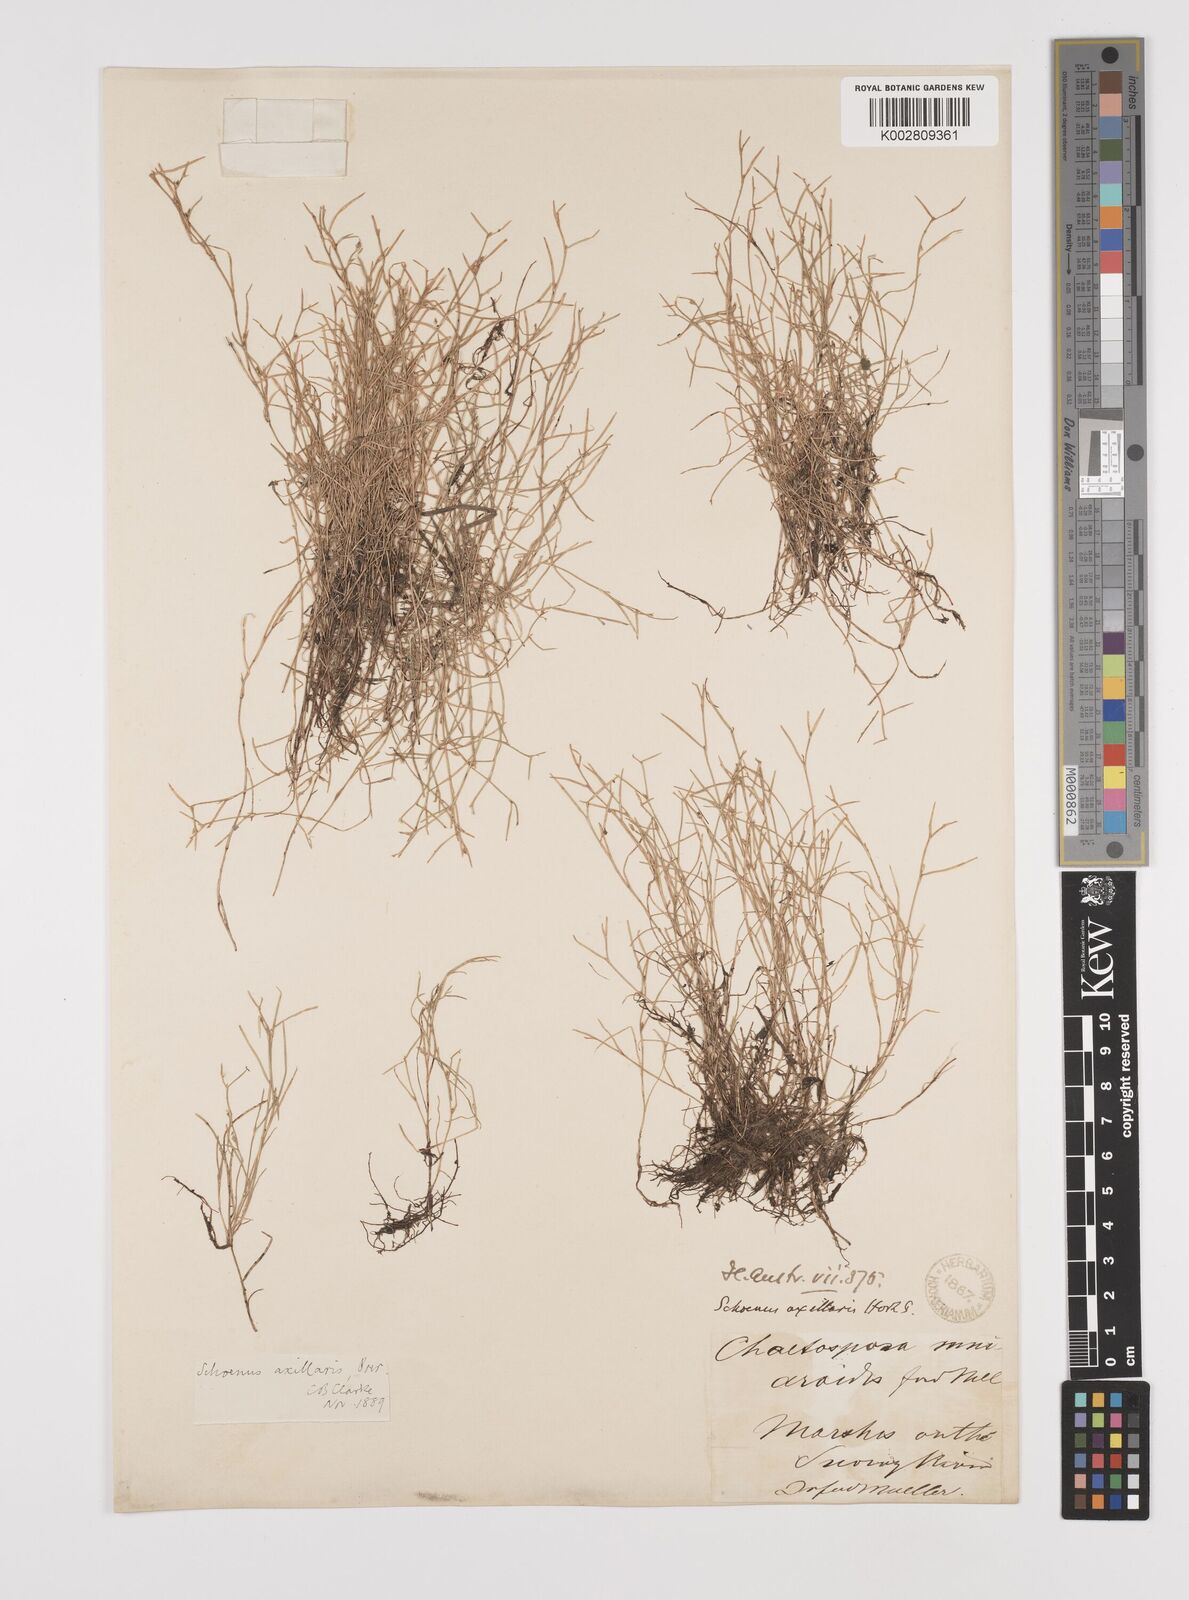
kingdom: Plantae
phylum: Tracheophyta
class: Liliopsida
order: Poales
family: Cyperaceae
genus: Schoenus
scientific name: Schoenus maschalinus
